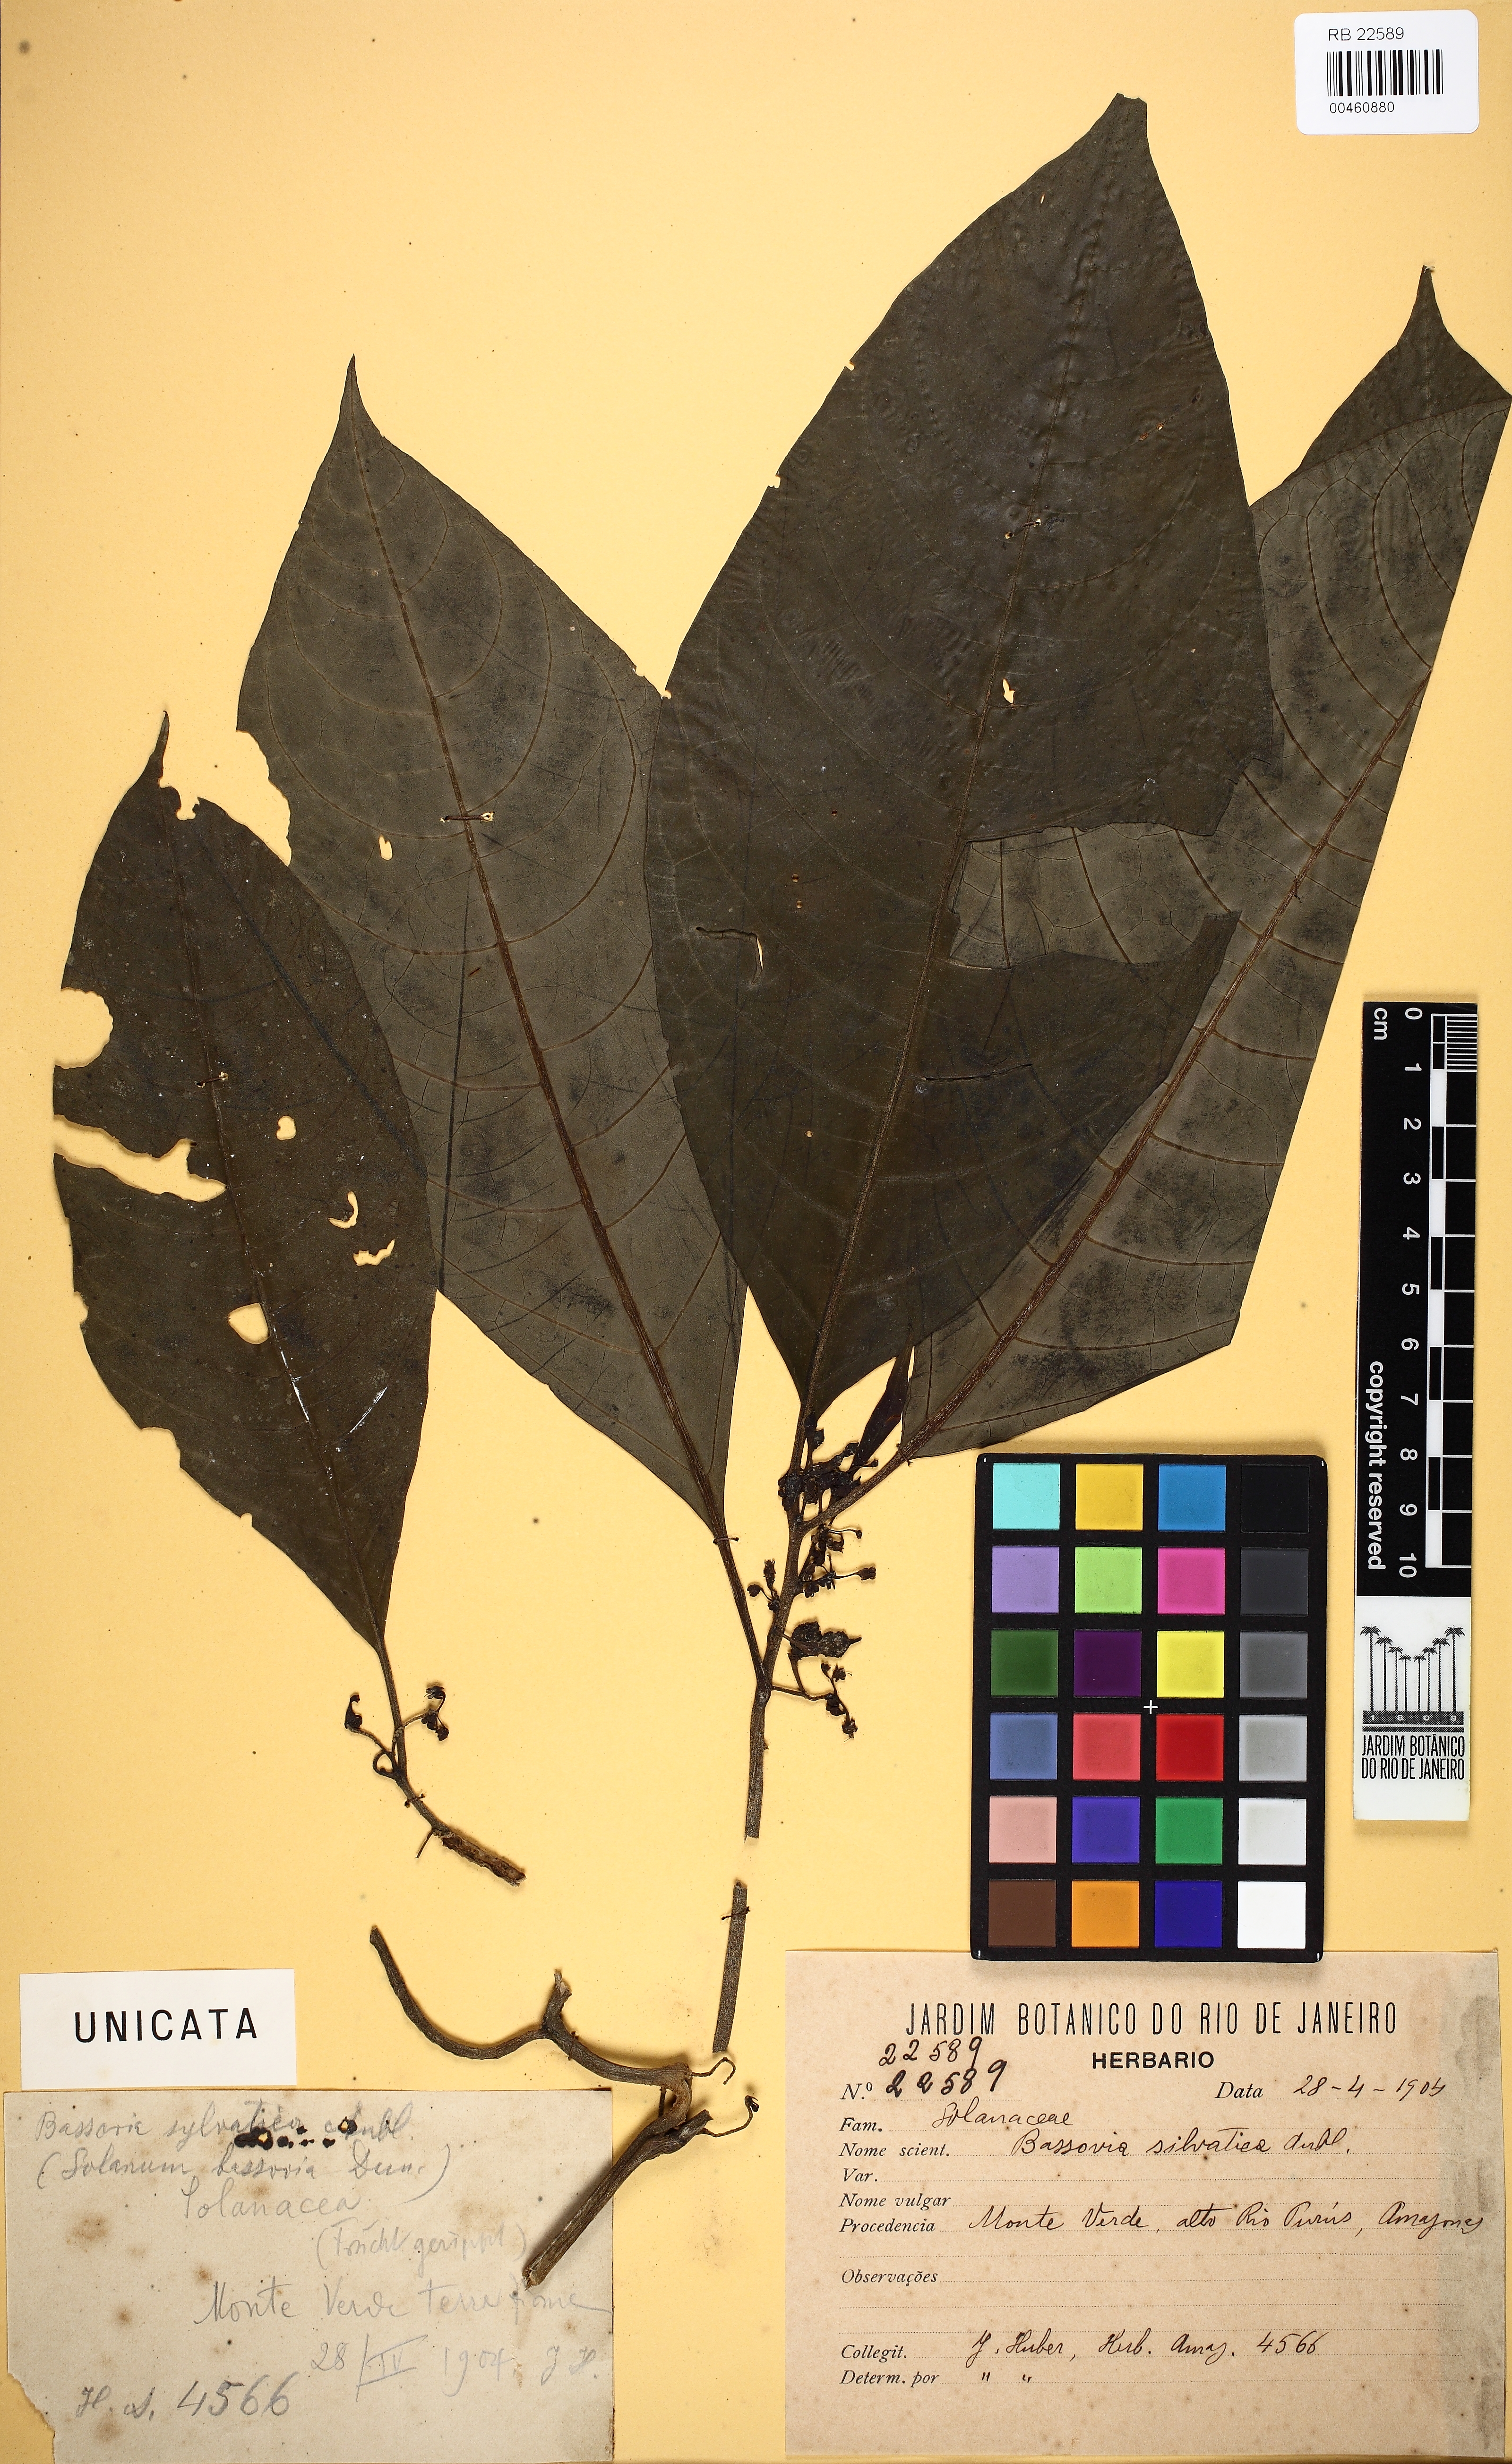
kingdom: Plantae
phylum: Tracheophyta
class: Magnoliopsida
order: Ericales
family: Primulaceae
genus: Maesa
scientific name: Maesa indica
